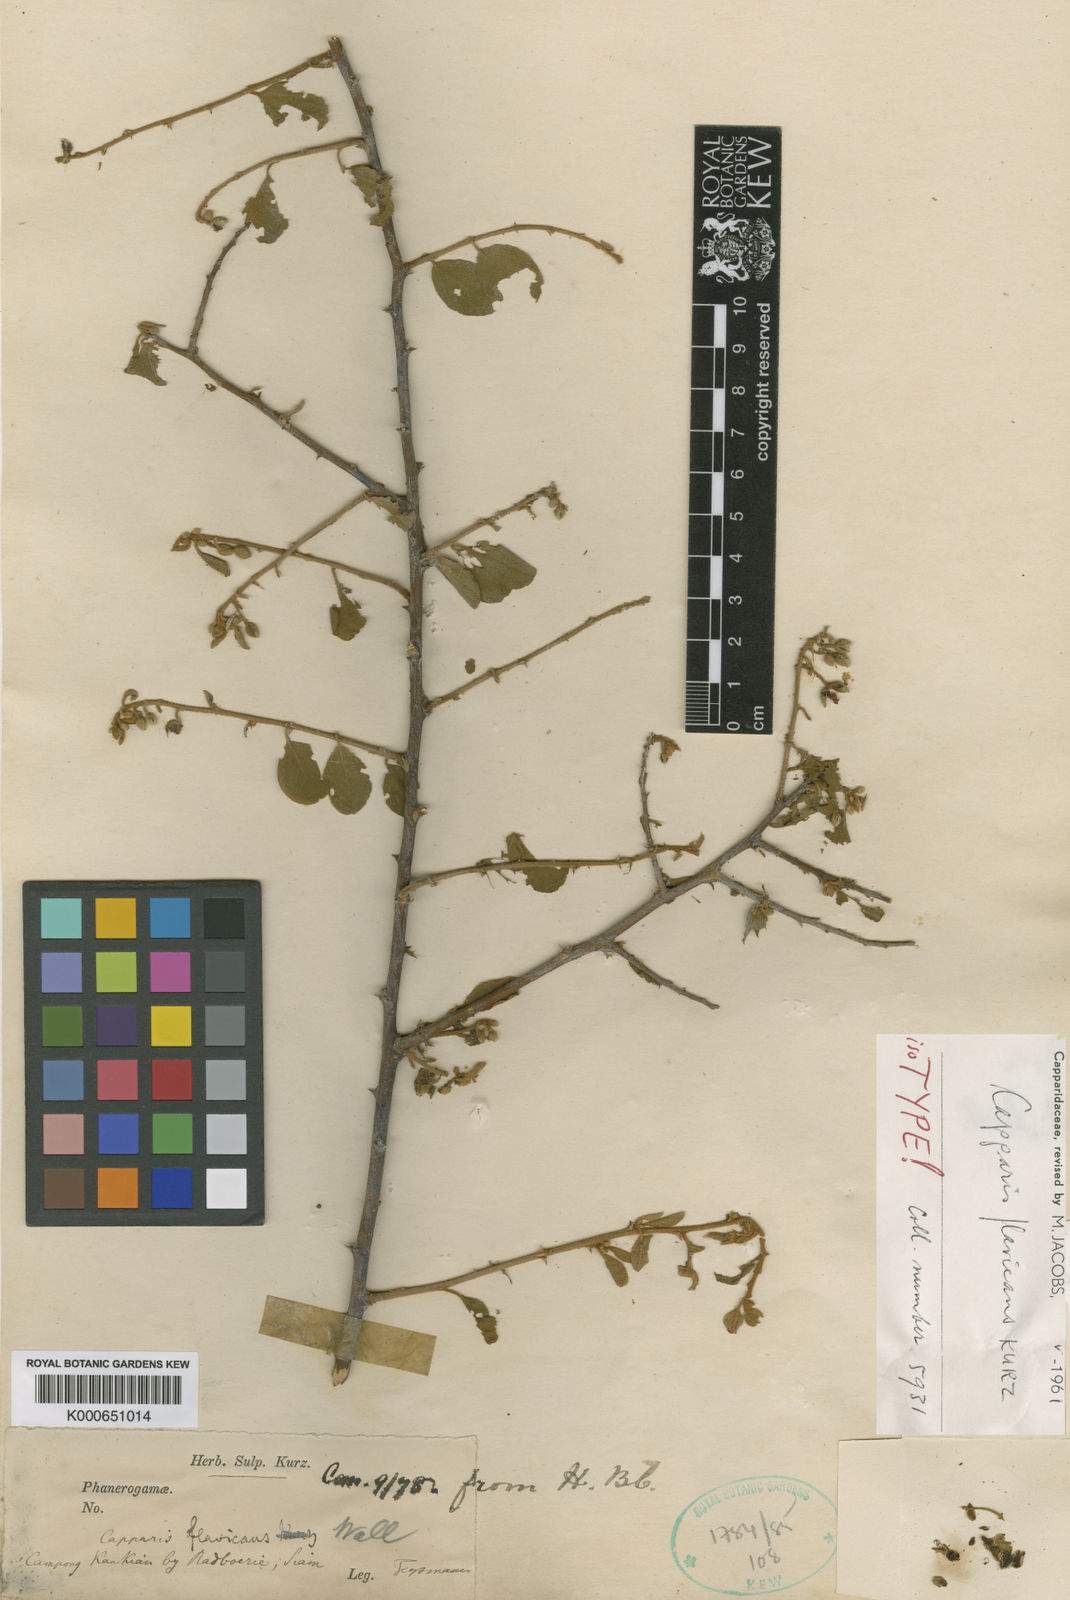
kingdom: Plantae
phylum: Tracheophyta
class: Magnoliopsida
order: Brassicales
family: Capparaceae
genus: Capparis
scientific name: Capparis flavicans
